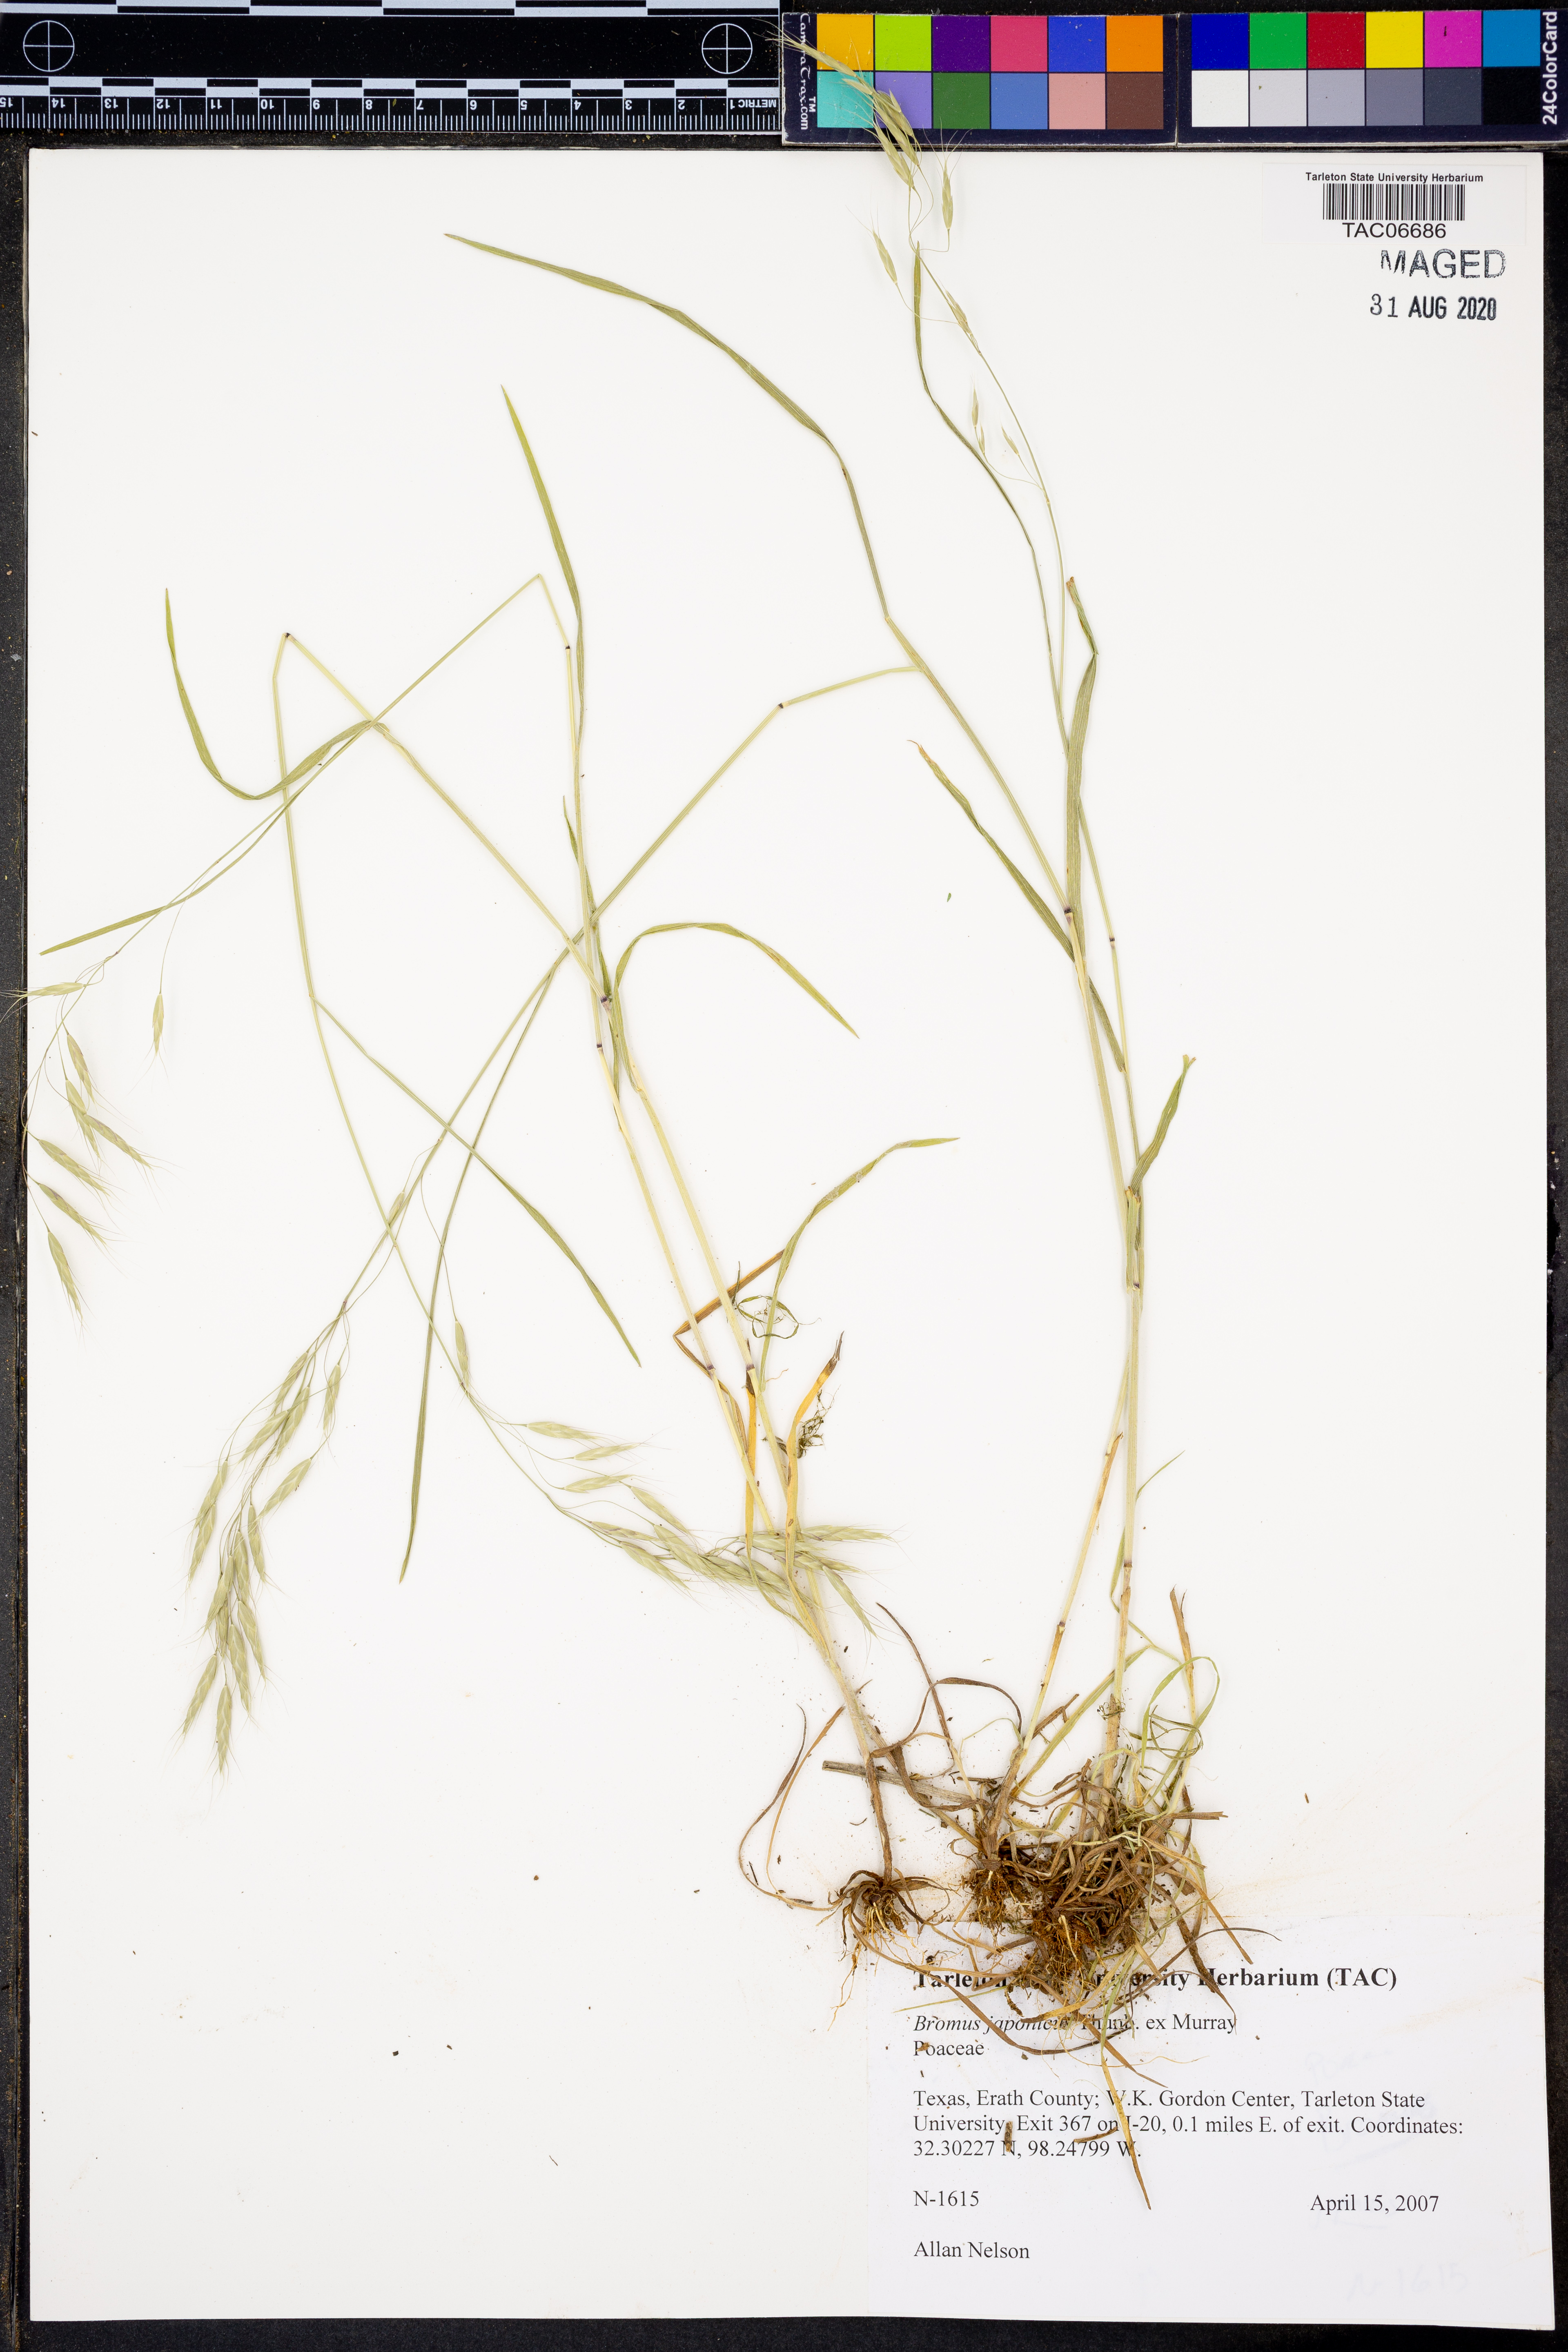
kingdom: Plantae
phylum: Tracheophyta
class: Liliopsida
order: Poales
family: Poaceae
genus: Bromus
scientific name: Bromus japonicus
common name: Japanese brome
